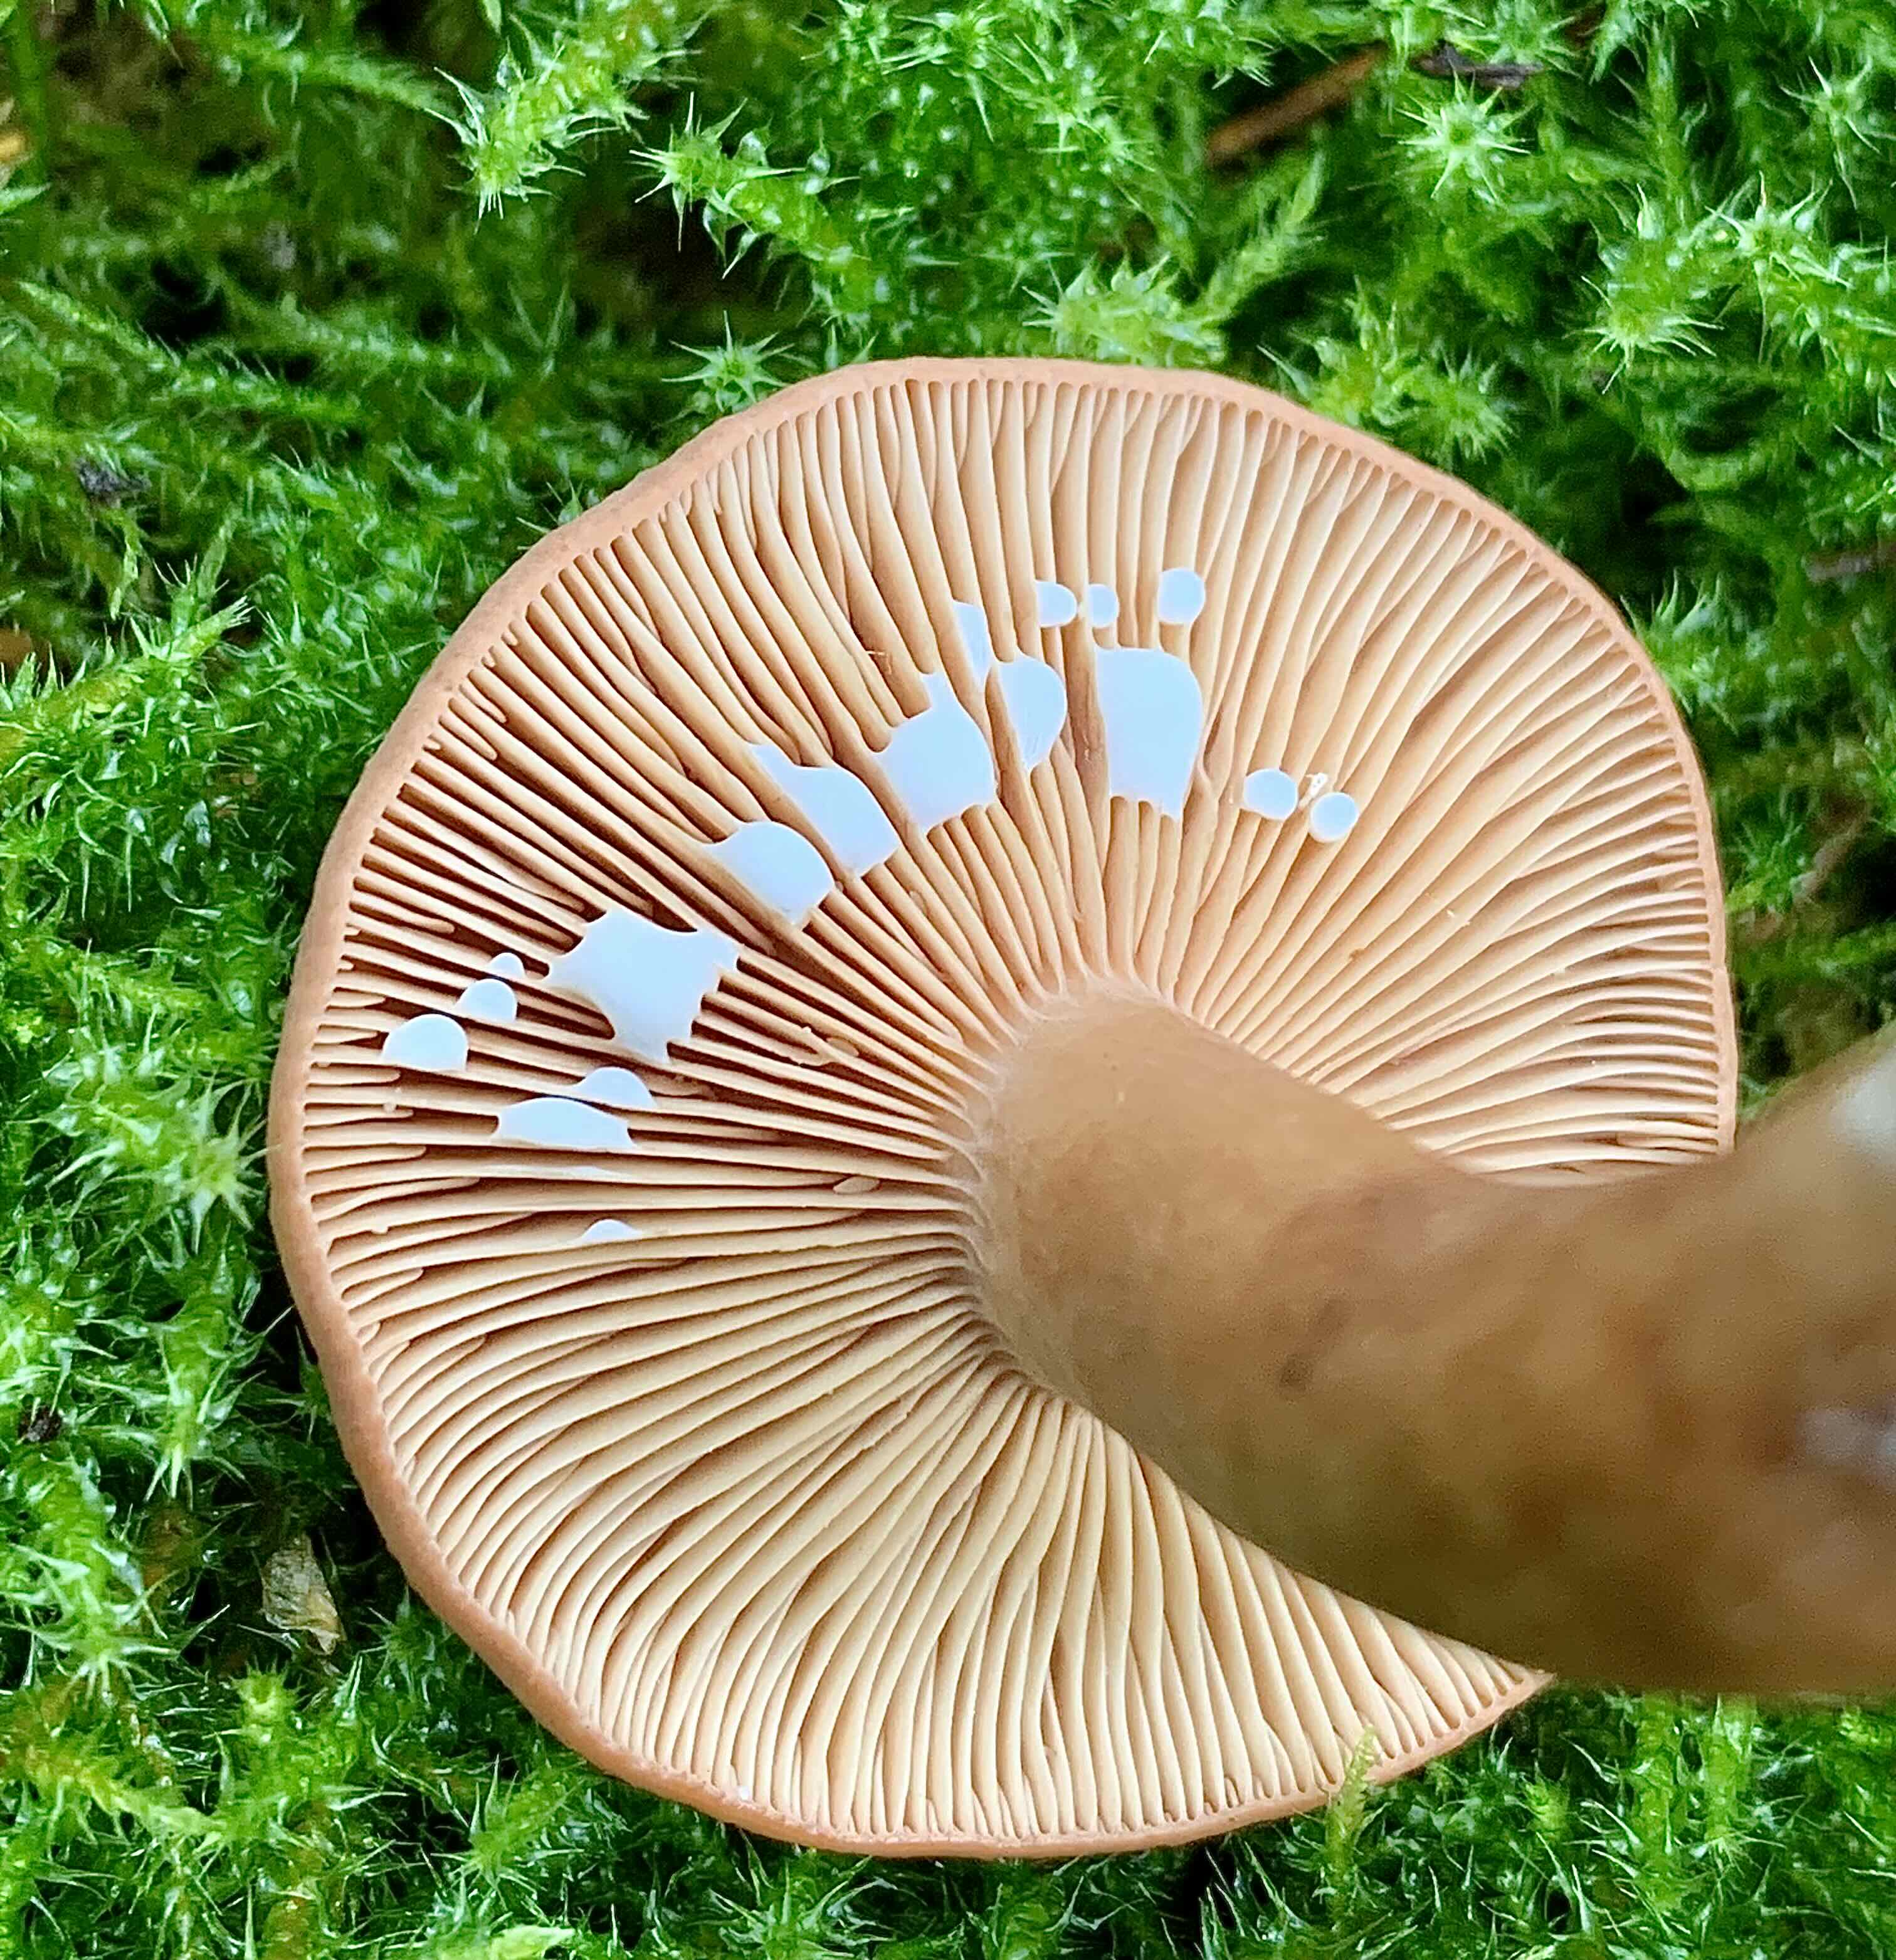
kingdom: Fungi
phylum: Basidiomycota
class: Agaricomycetes
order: Russulales
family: Russulaceae
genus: Lactarius
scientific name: Lactarius tabidus
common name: rynket mælkehat
